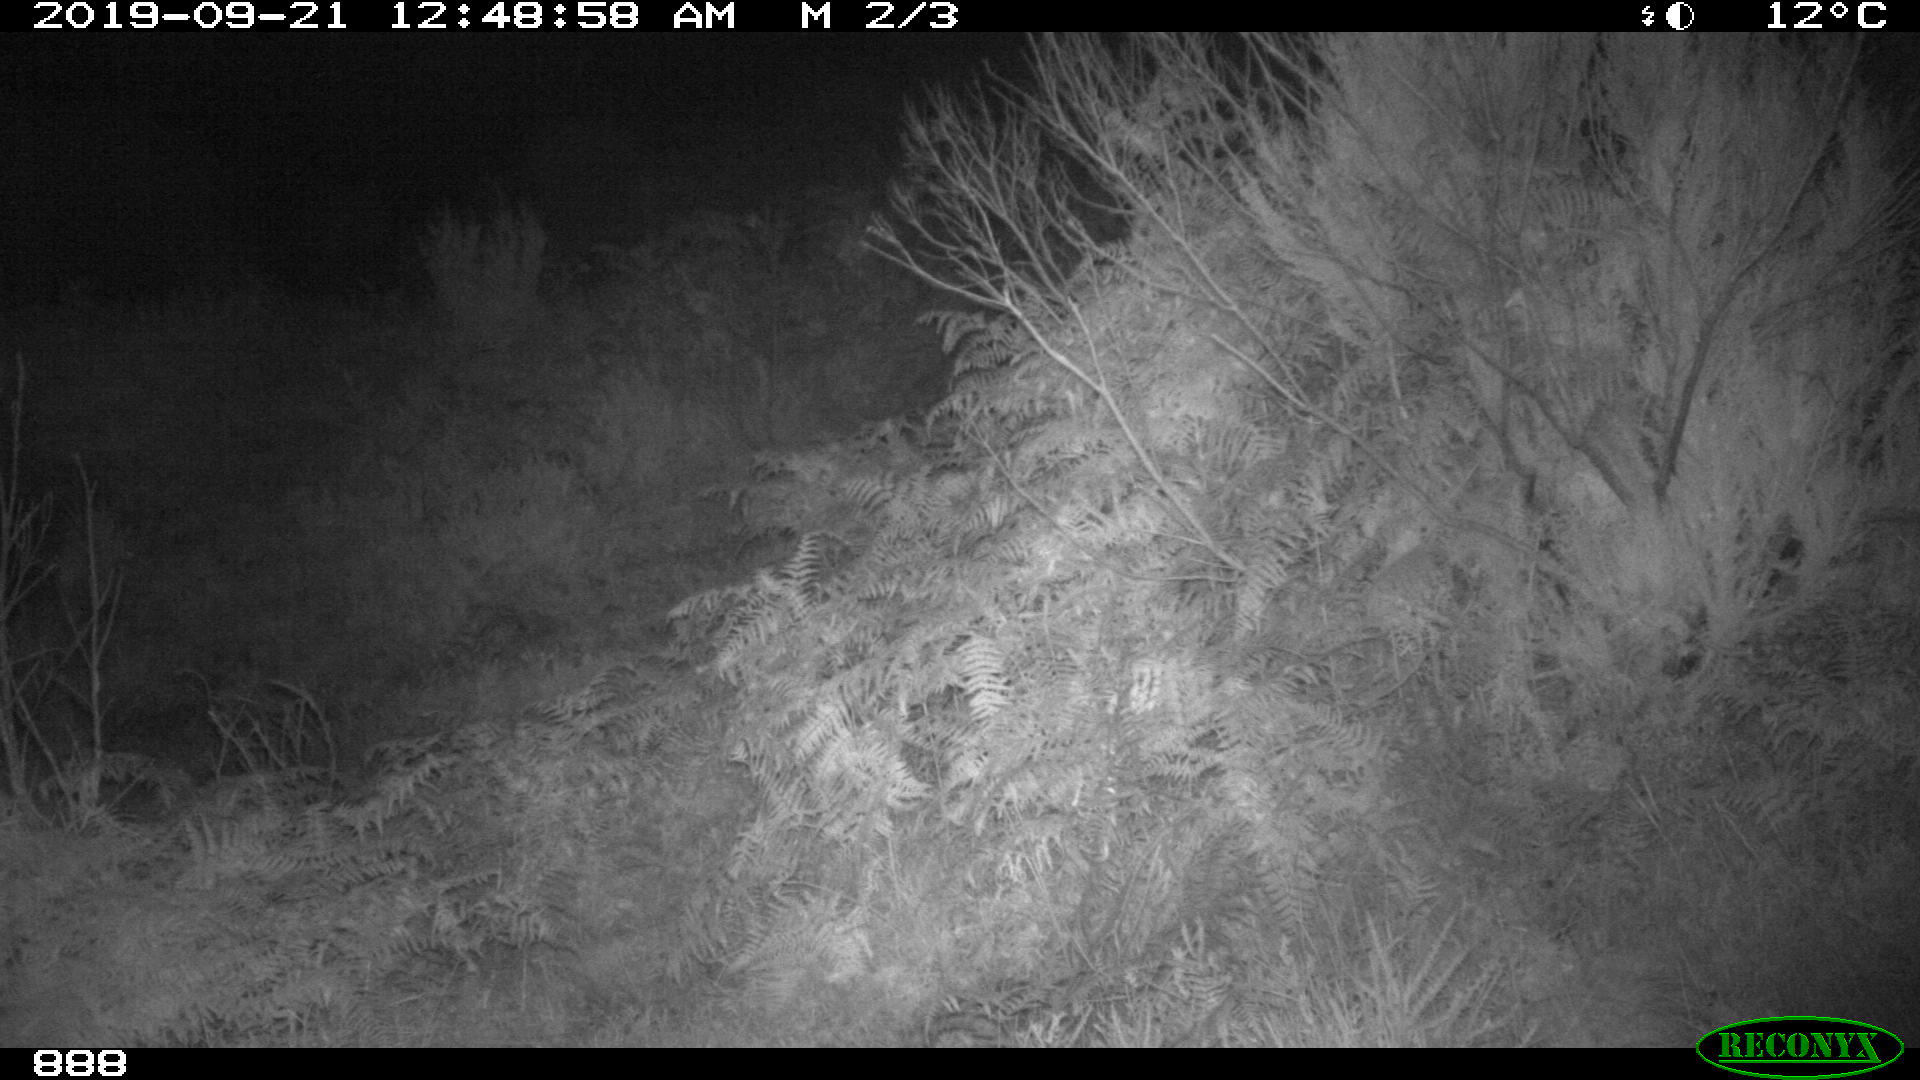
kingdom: Animalia
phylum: Chordata
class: Mammalia
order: Artiodactyla
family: Bovidae
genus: Bos
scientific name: Bos taurus
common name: Domesticated cattle
